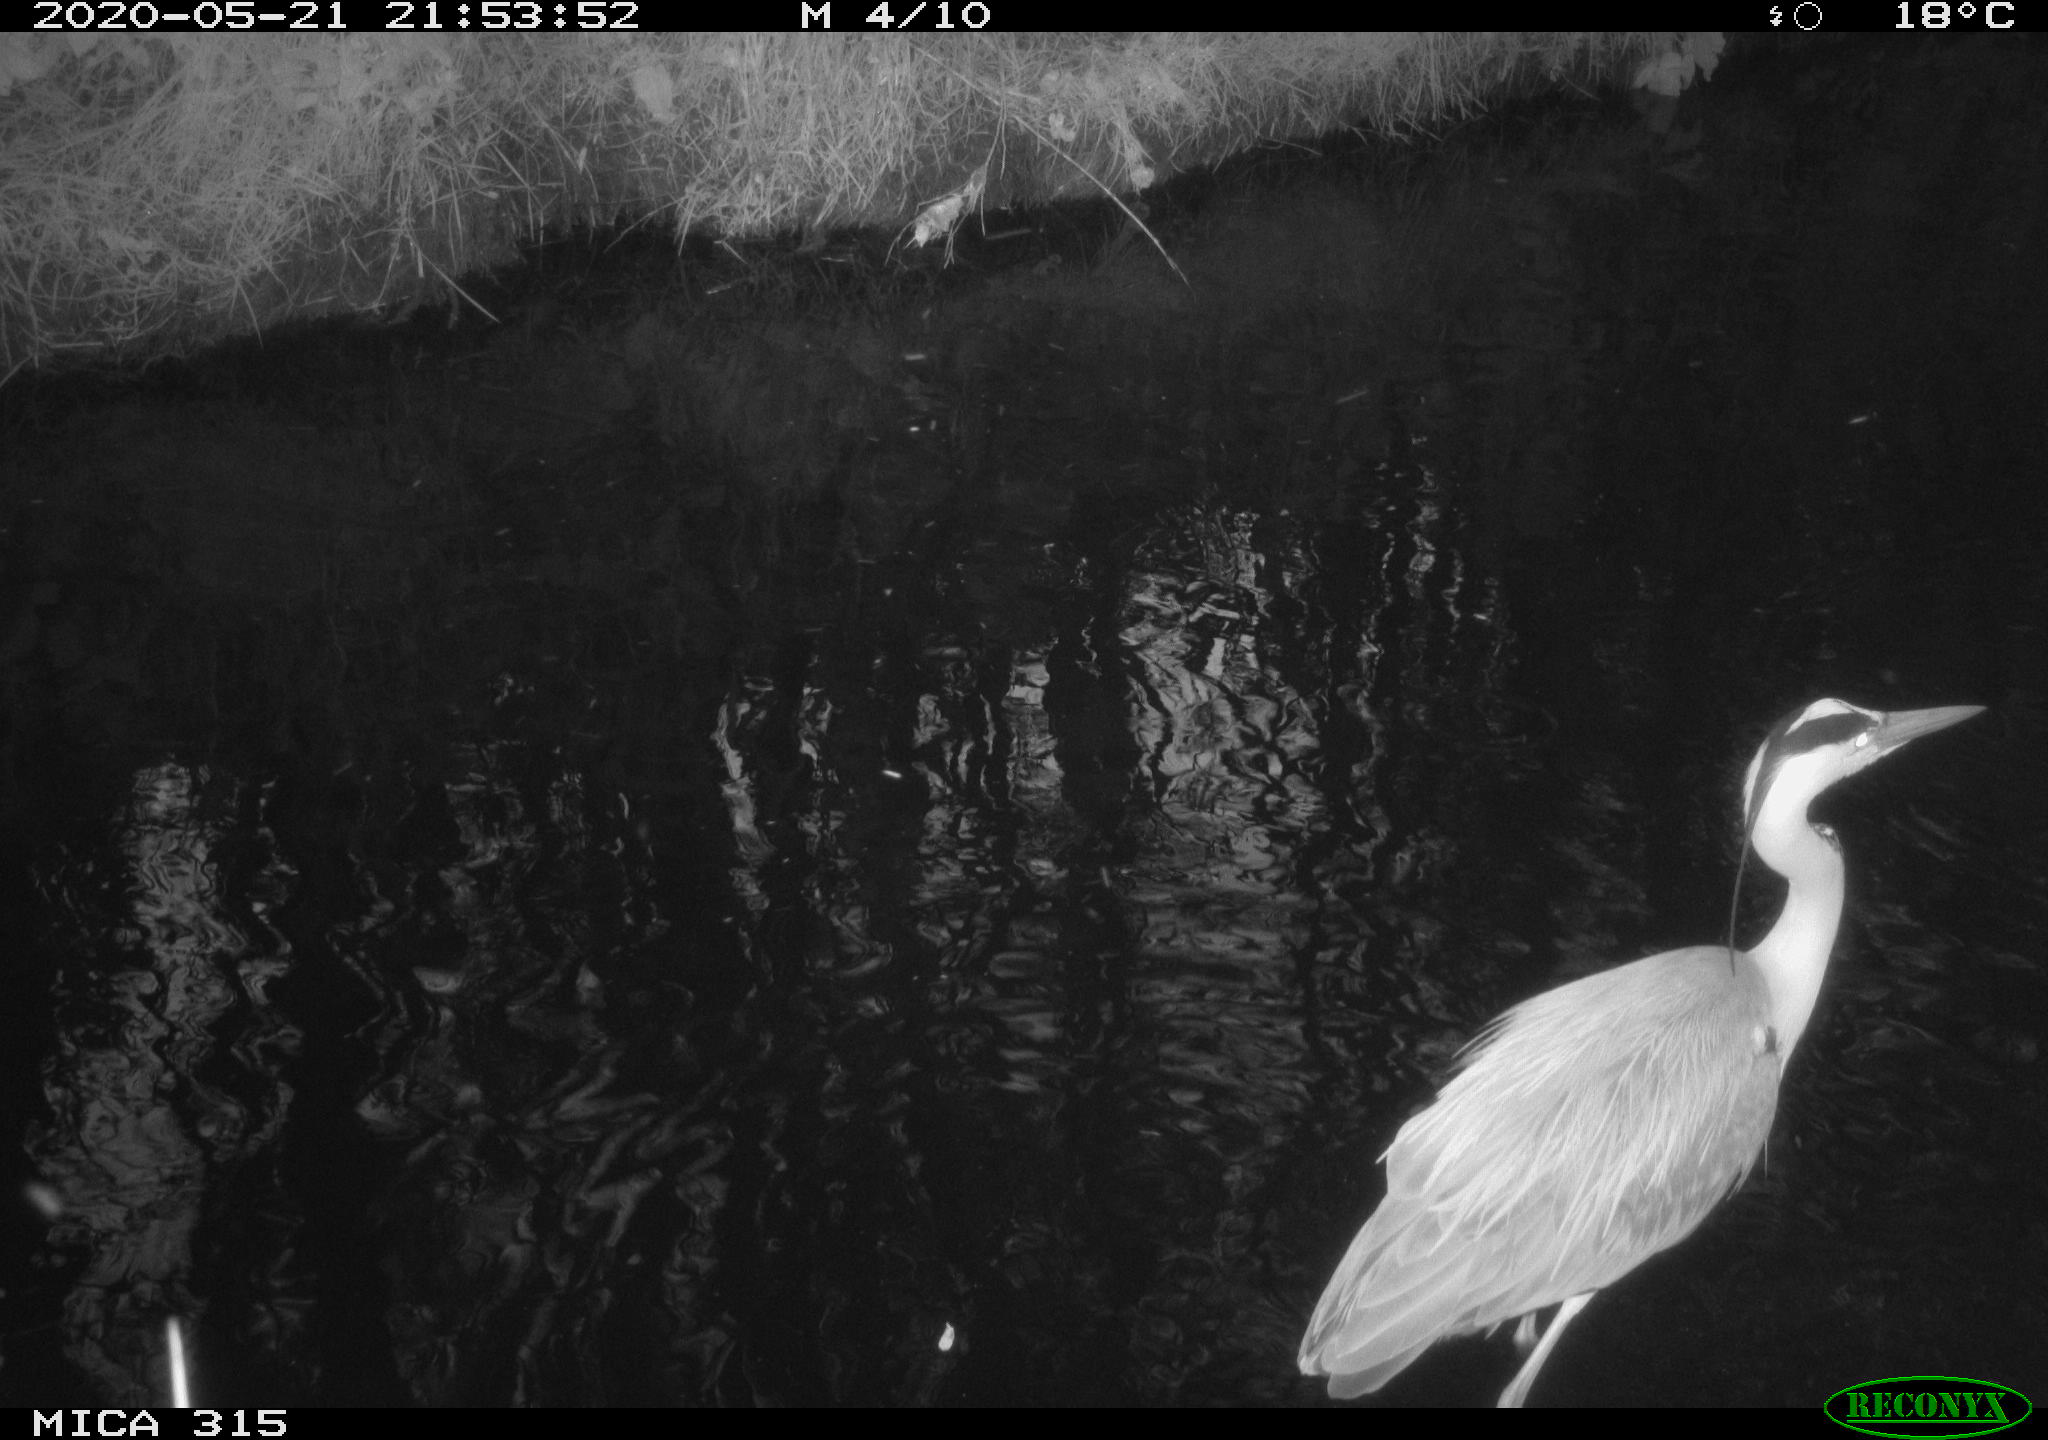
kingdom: Animalia
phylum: Chordata
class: Aves
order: Pelecaniformes
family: Ardeidae
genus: Ardea
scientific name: Ardea cinerea
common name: Grey heron
